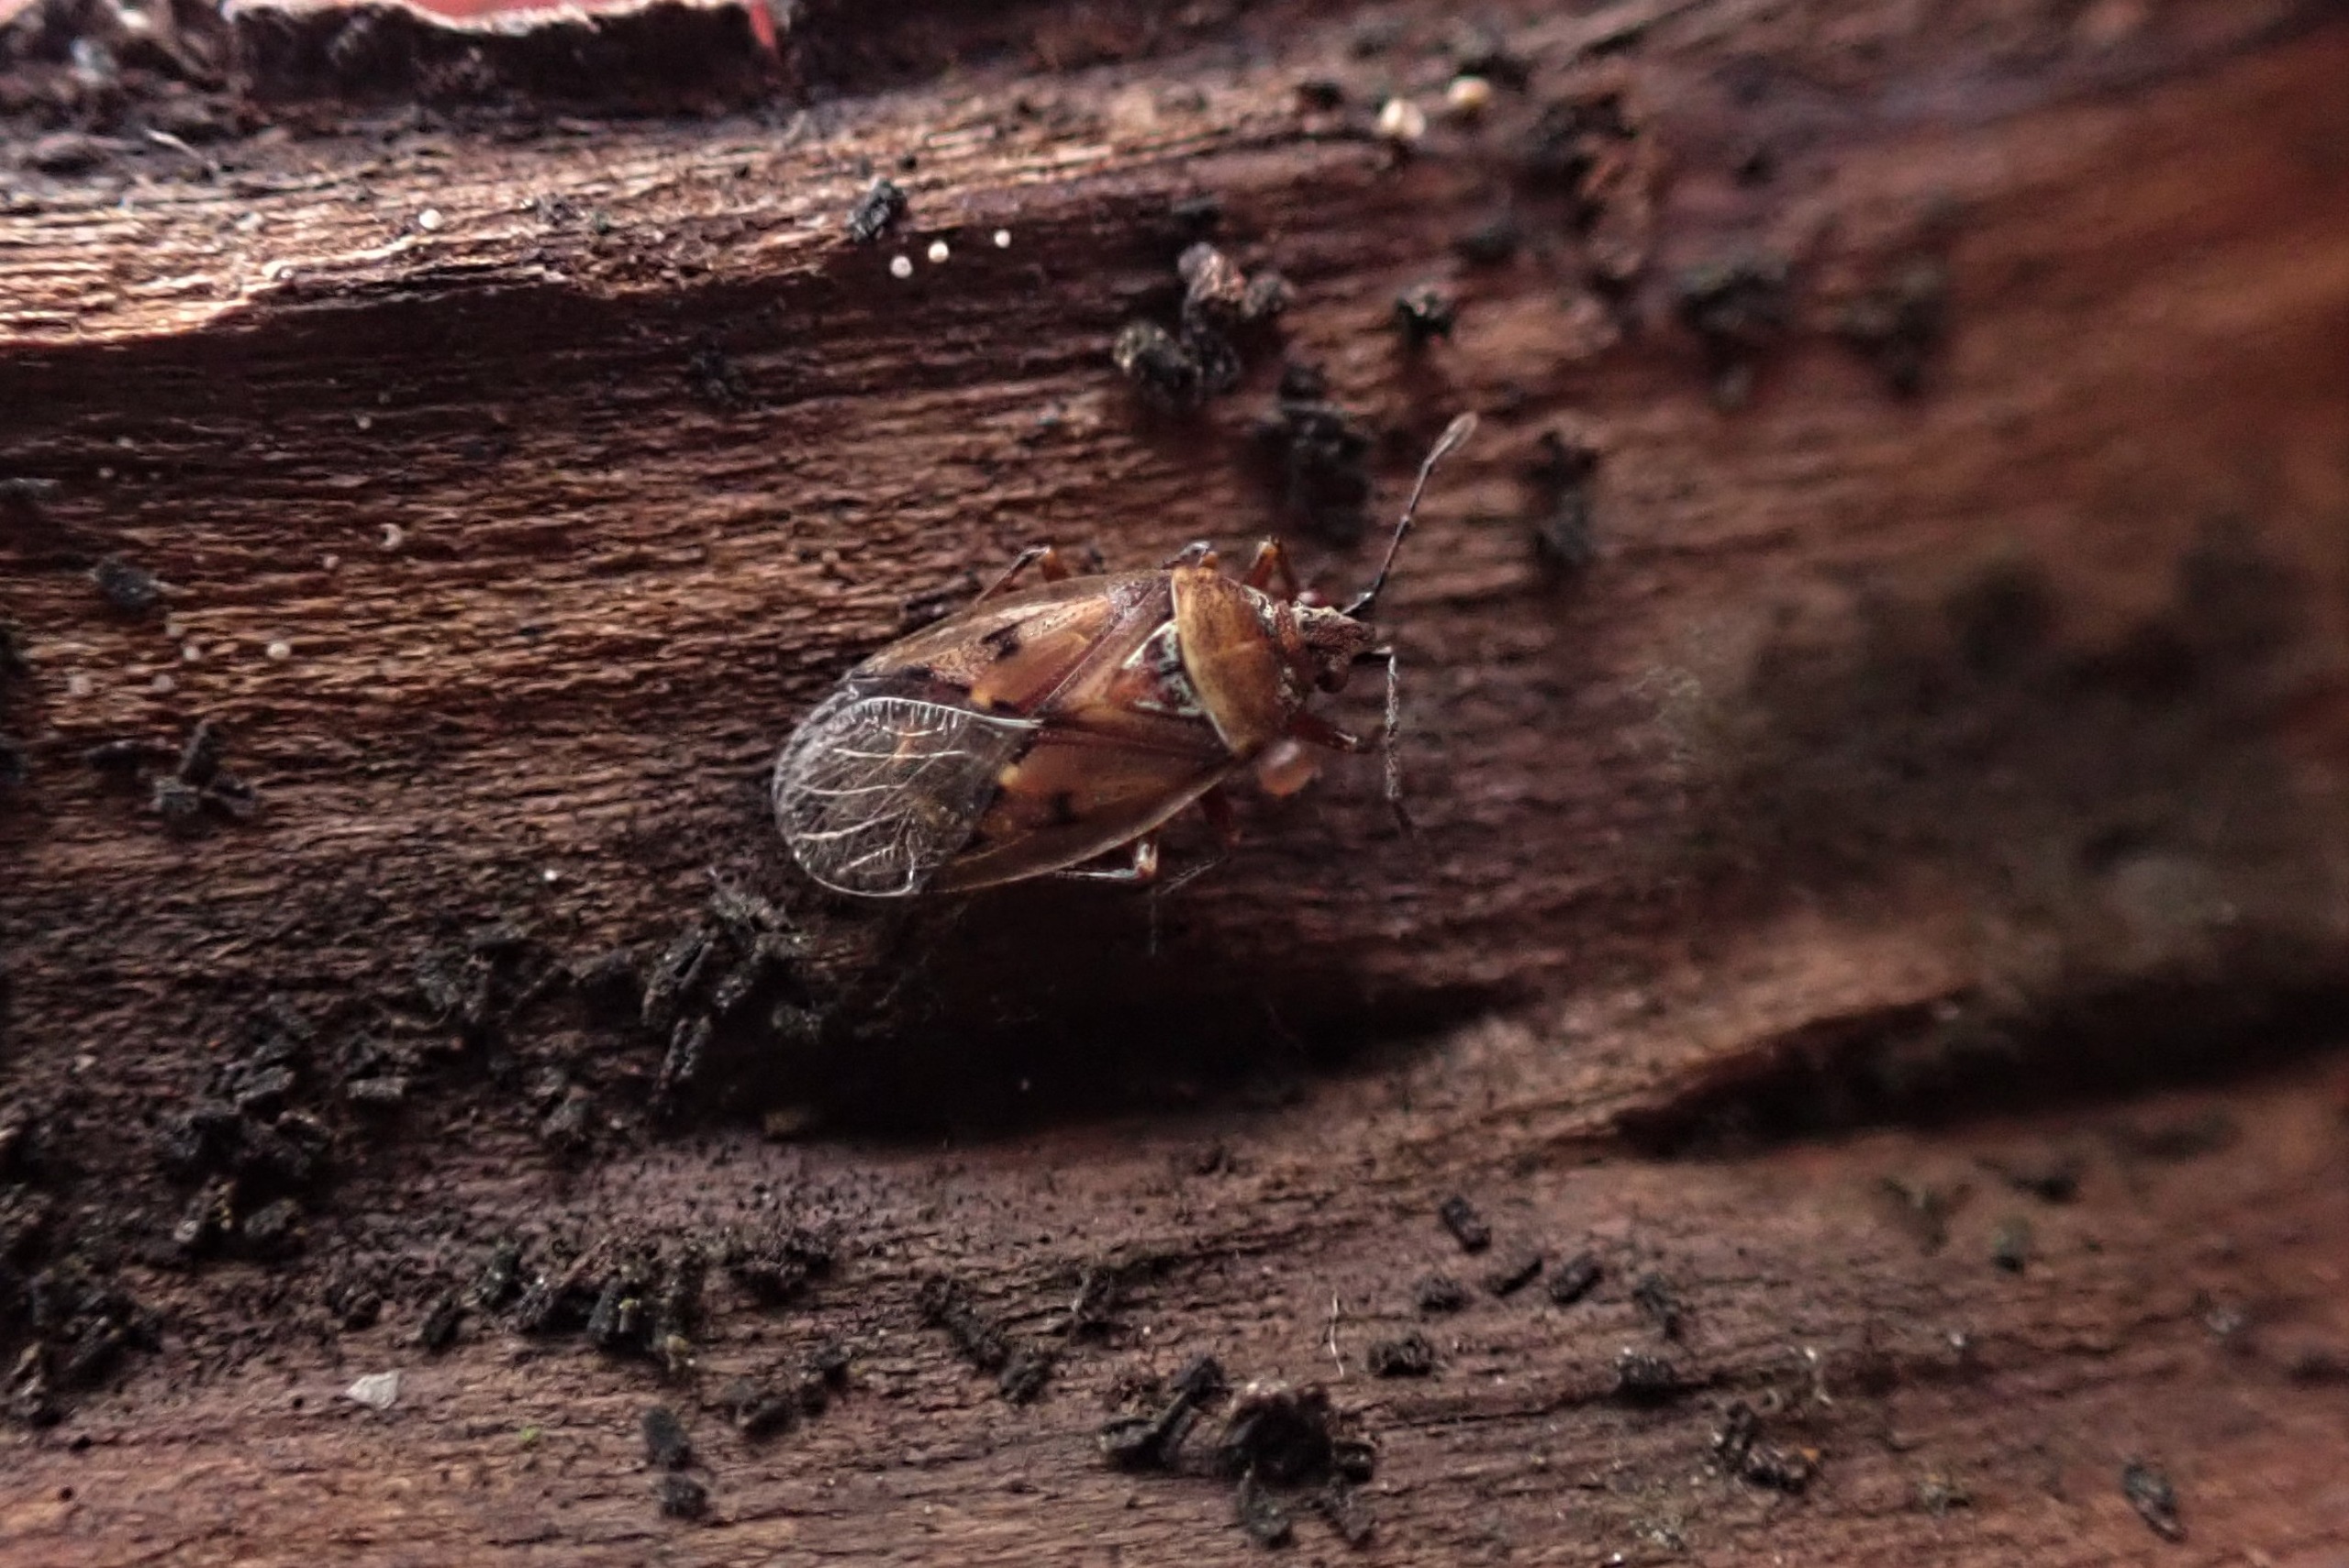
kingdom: Animalia
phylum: Arthropoda
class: Insecta
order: Hemiptera
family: Lygaeidae
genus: Kleidocerys
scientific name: Kleidocerys resedae
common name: Birkefrøtæge
